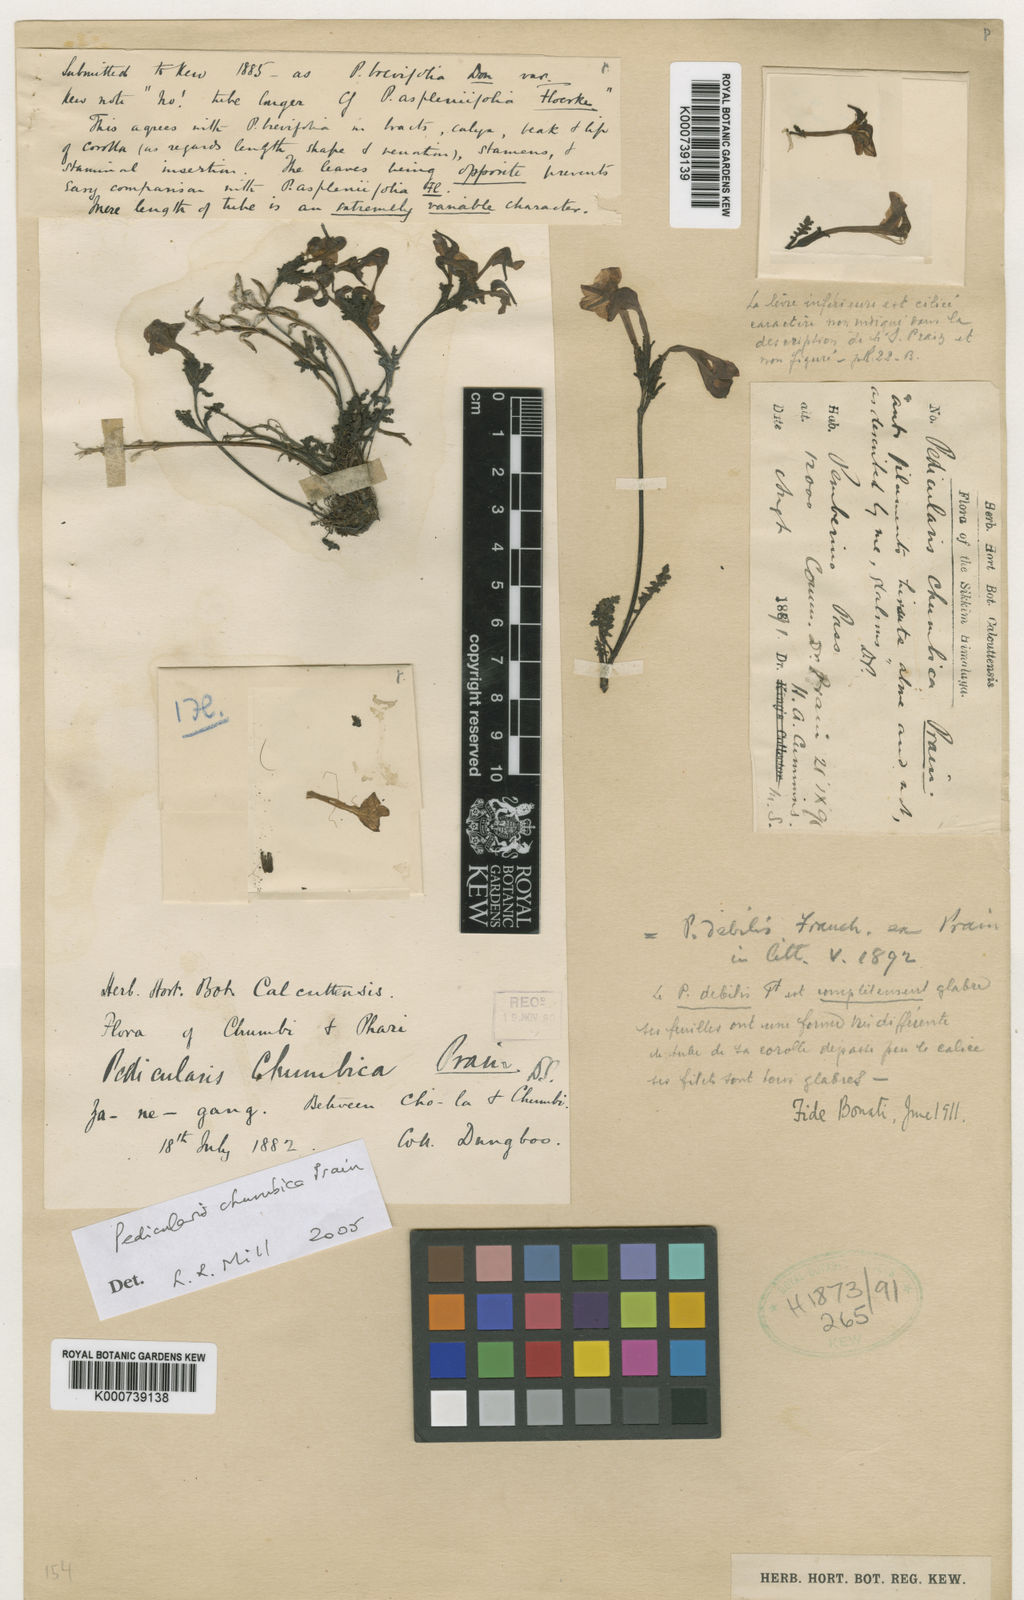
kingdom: Plantae
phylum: Tracheophyta
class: Magnoliopsida
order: Lamiales
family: Orobanchaceae
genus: Pedicularis
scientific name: Pedicularis chumbica
